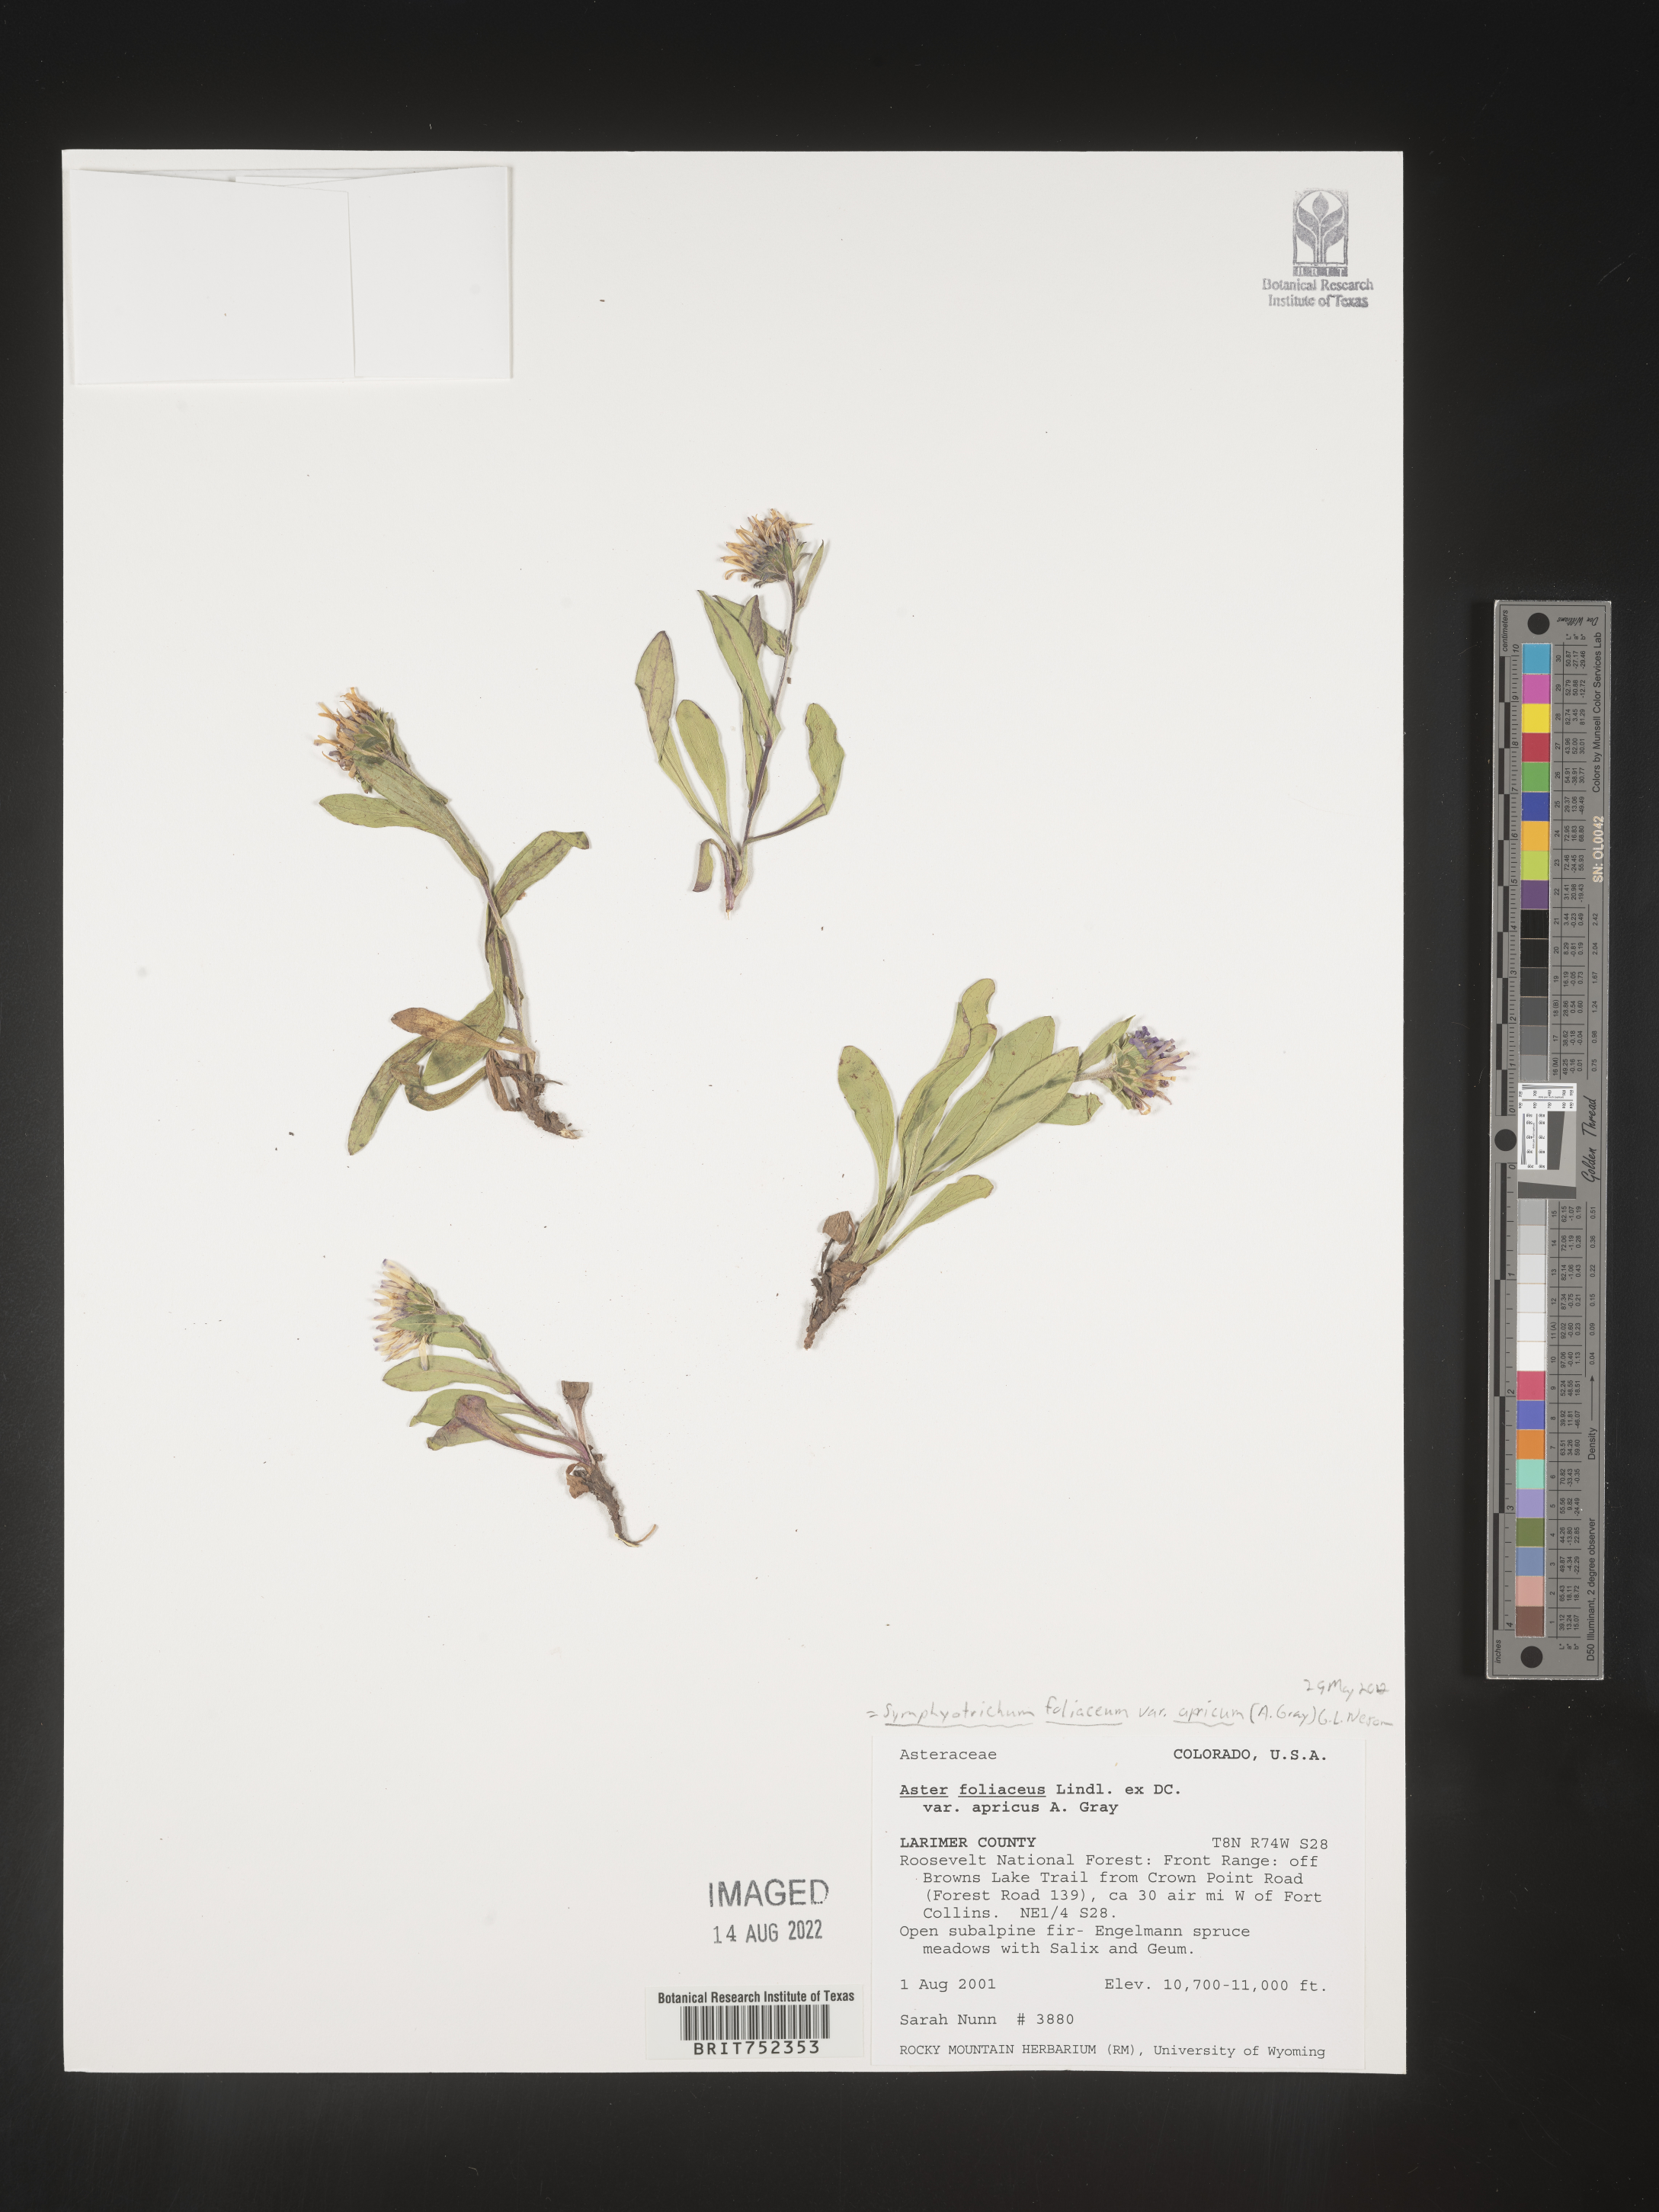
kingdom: Plantae
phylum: Tracheophyta
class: Magnoliopsida
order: Asterales
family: Asteraceae
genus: Symphyotrichum
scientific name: Symphyotrichum foliaceum
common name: Leafy aster
